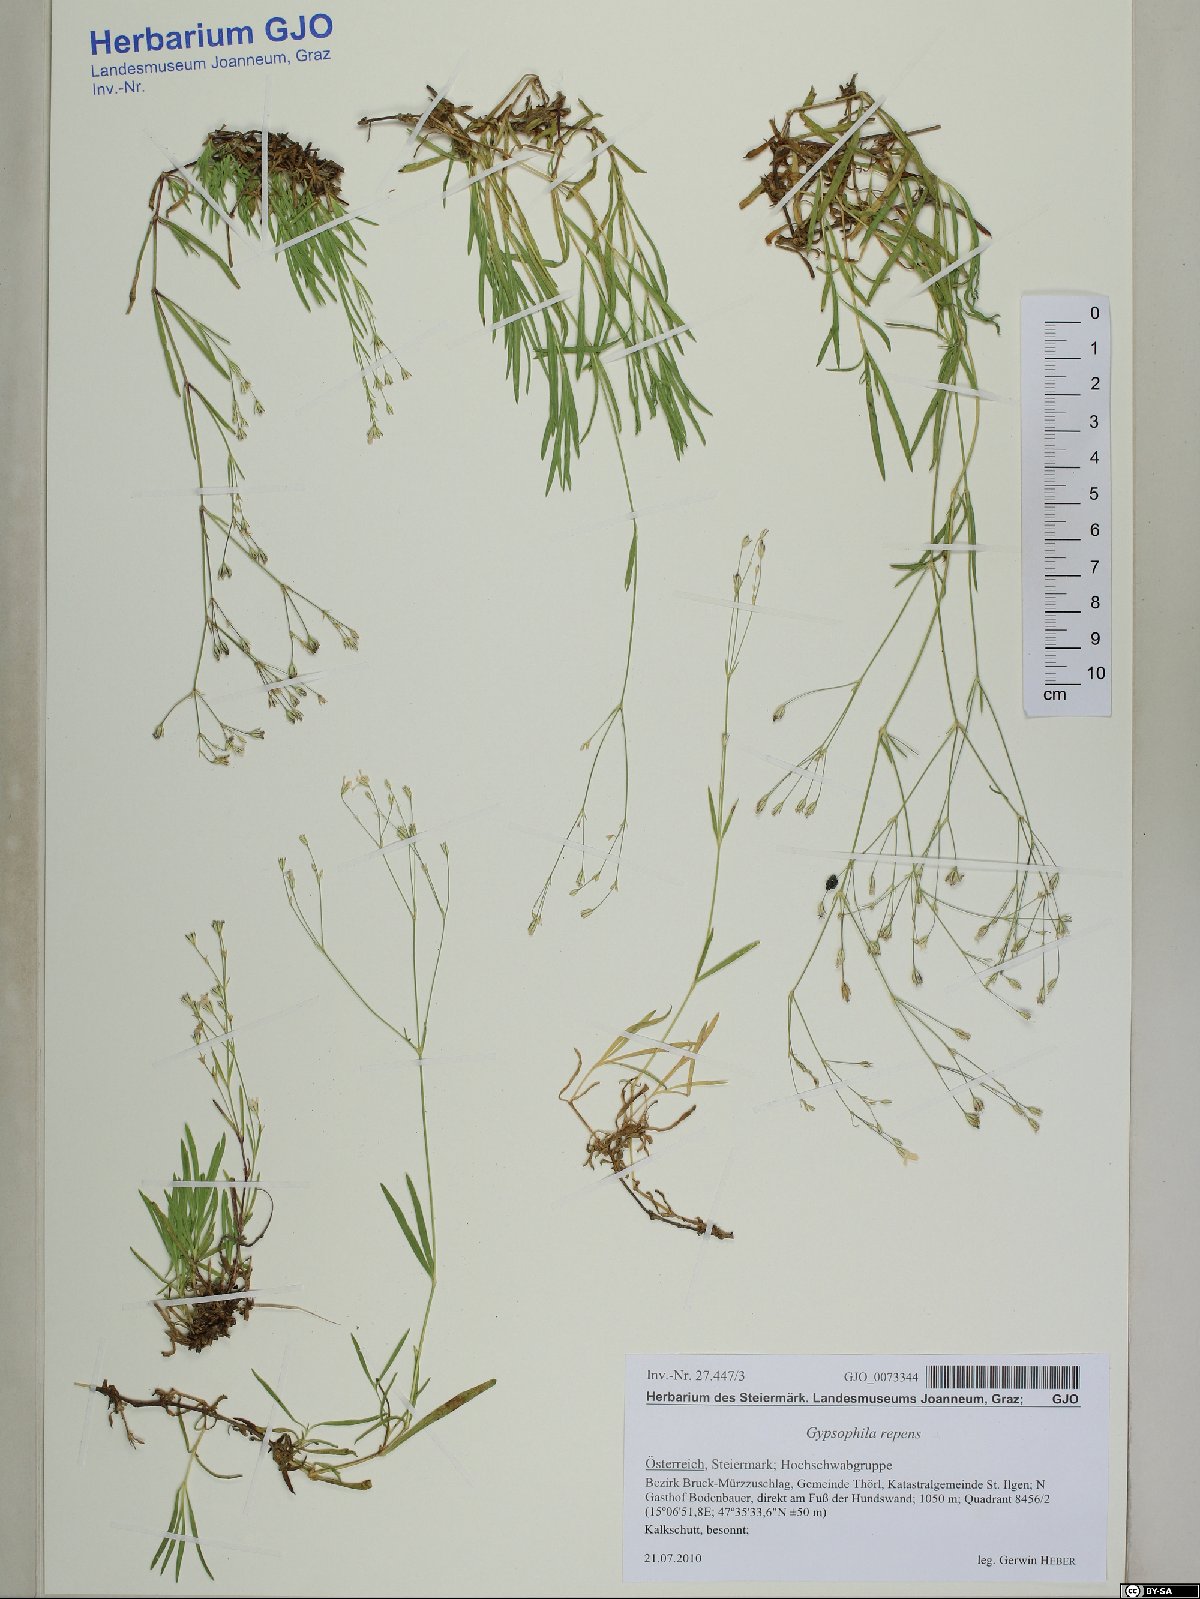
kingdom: Plantae
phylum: Tracheophyta
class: Magnoliopsida
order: Caryophyllales
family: Caryophyllaceae
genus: Gypsophila
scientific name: Gypsophila repens
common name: Creeping baby's-breath
